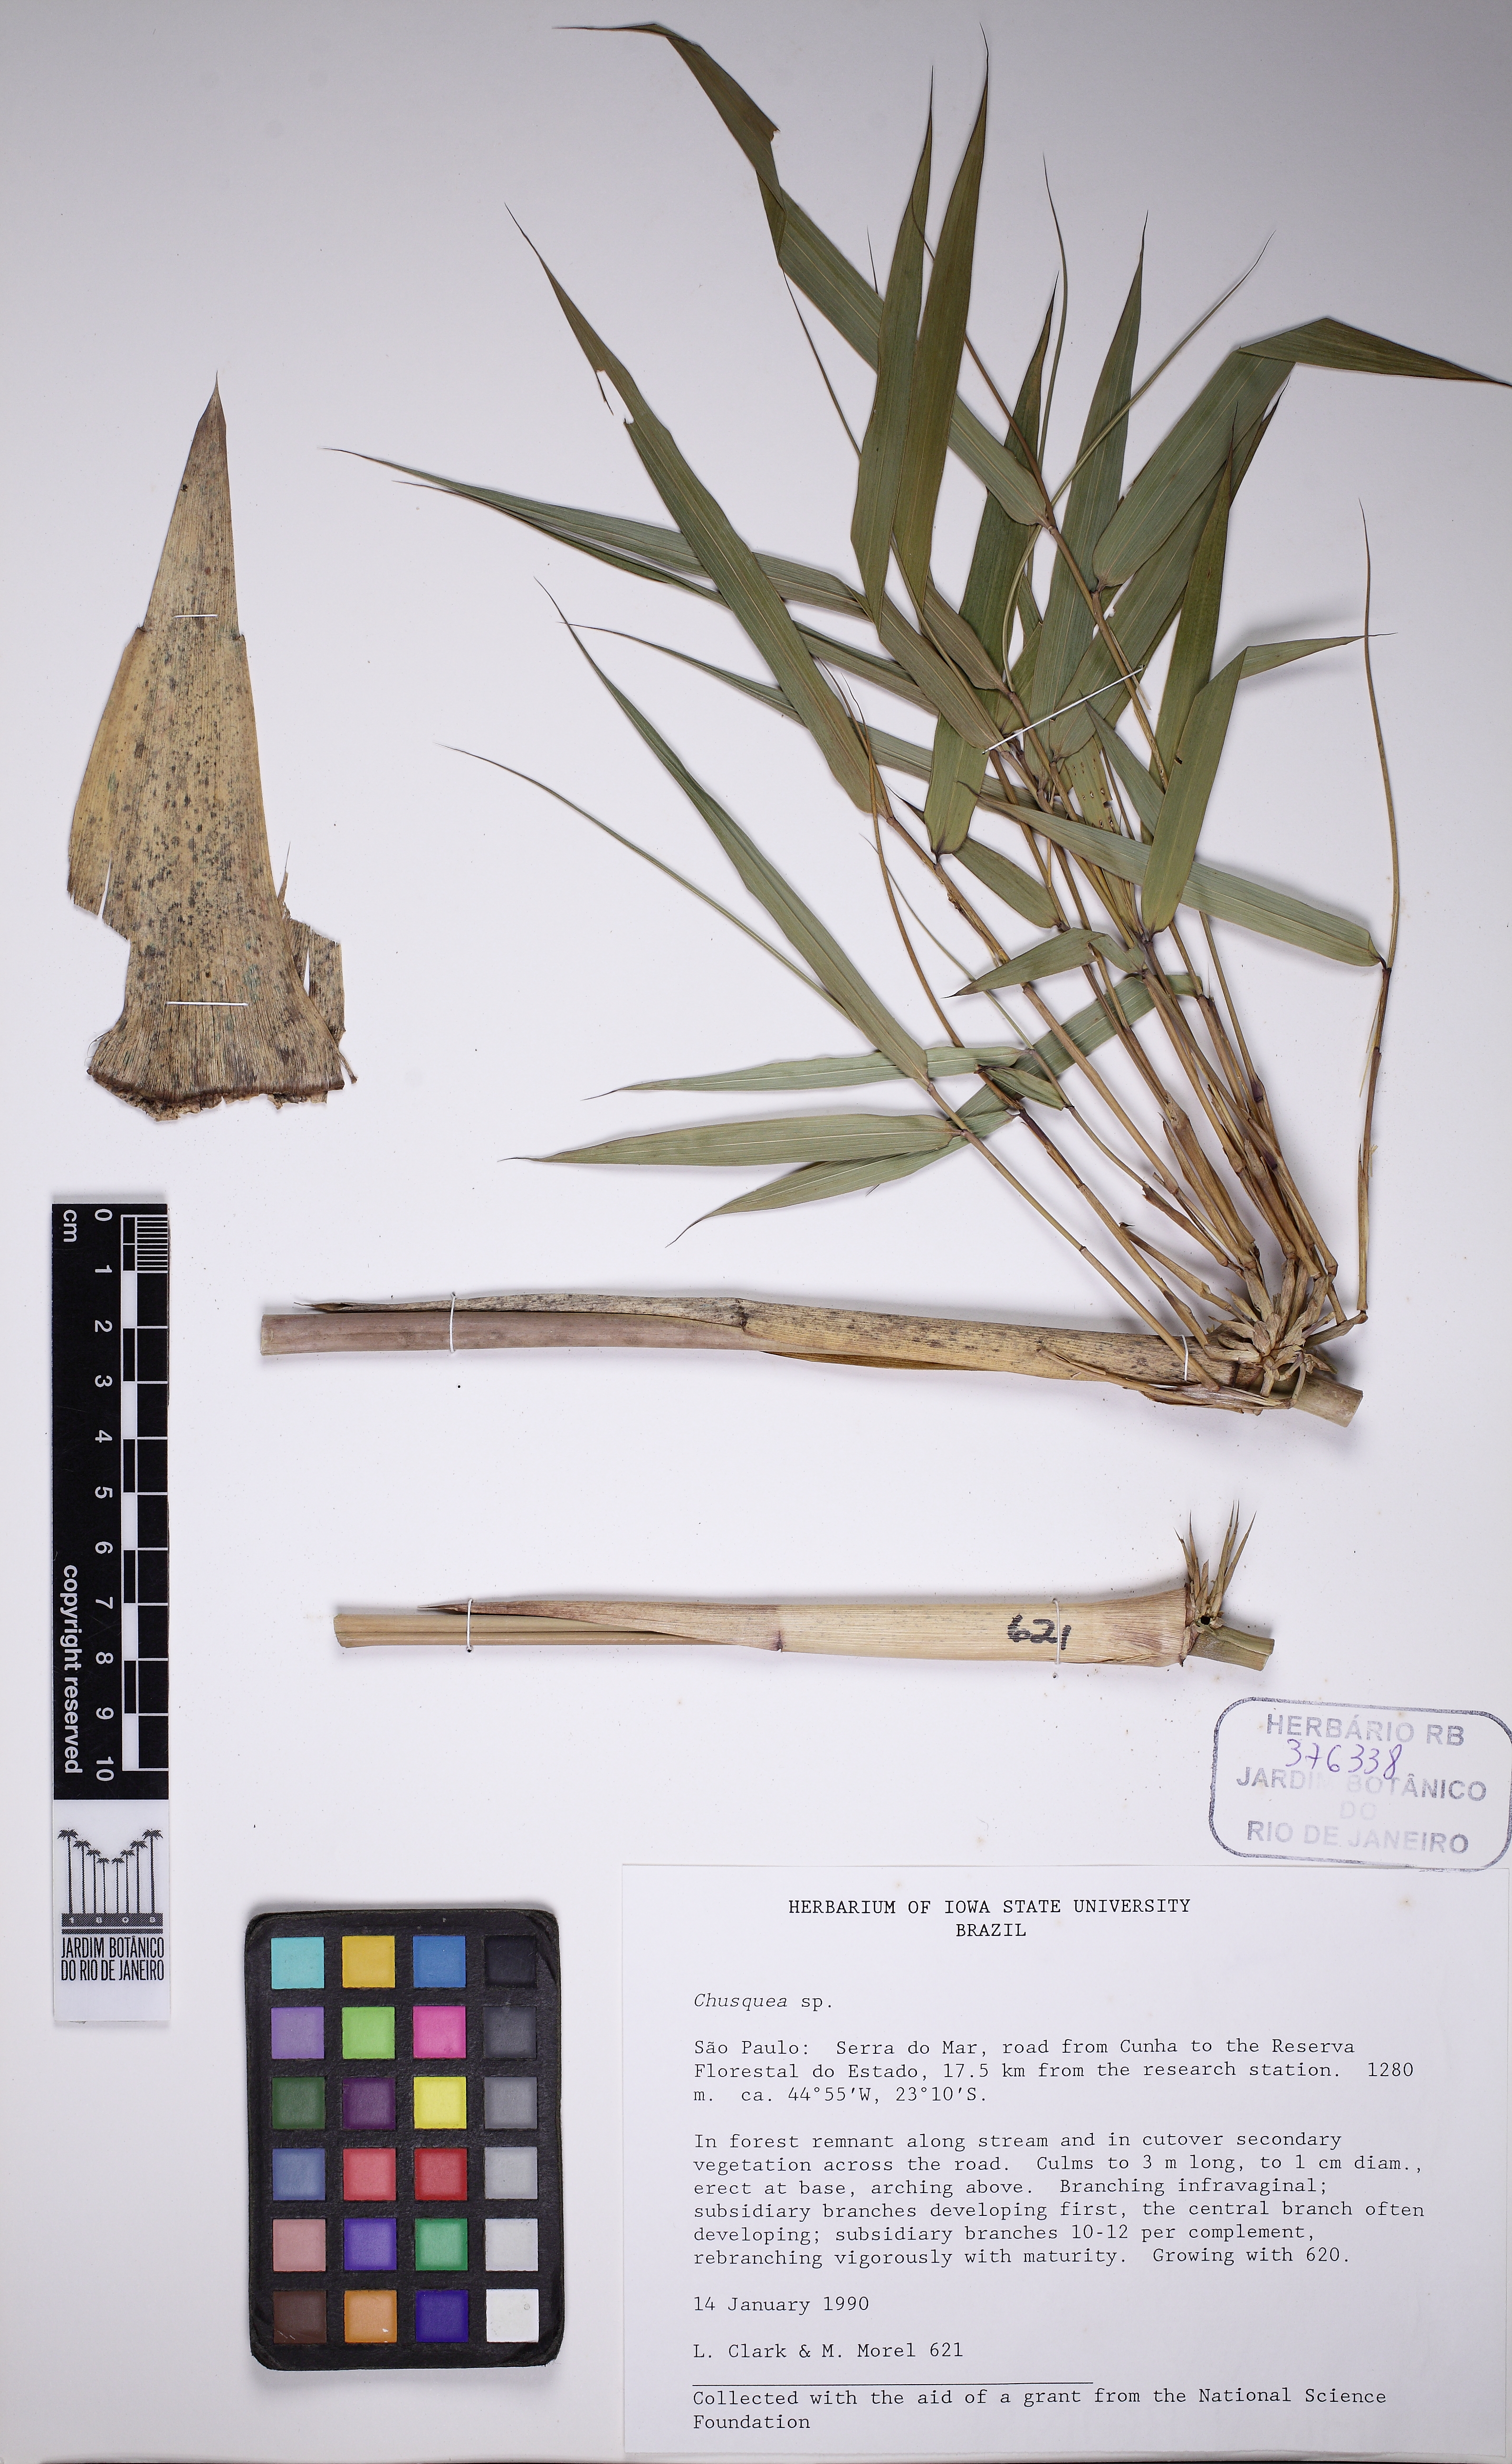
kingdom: Plantae
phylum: Tracheophyta
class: Liliopsida
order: Poales
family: Poaceae
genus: Chusquea
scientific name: Chusquea meyeriana
